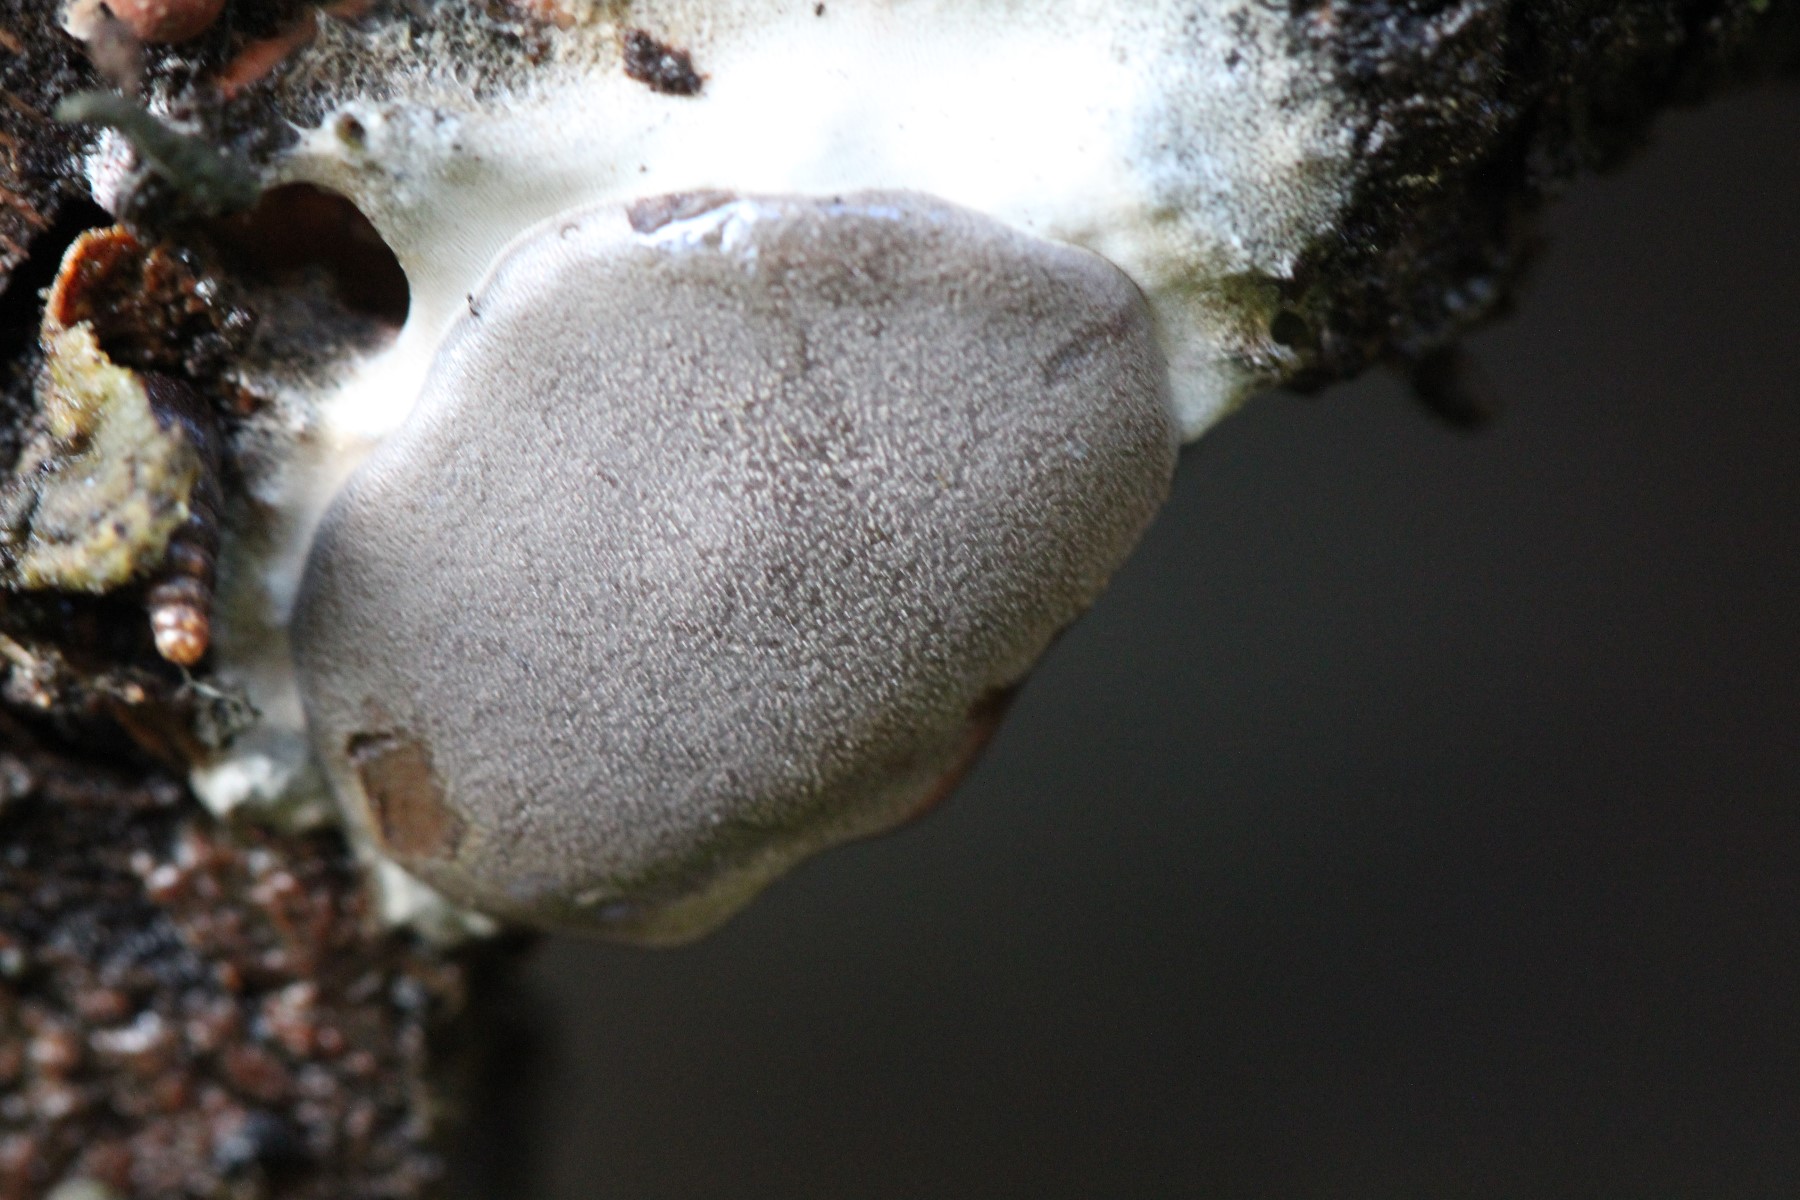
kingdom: Protozoa
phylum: Mycetozoa
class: Myxomycetes
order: Trichiales
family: Dictydiaethaliaceae
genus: Dictydiaethalium
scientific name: Dictydiaethalium plumbeum
